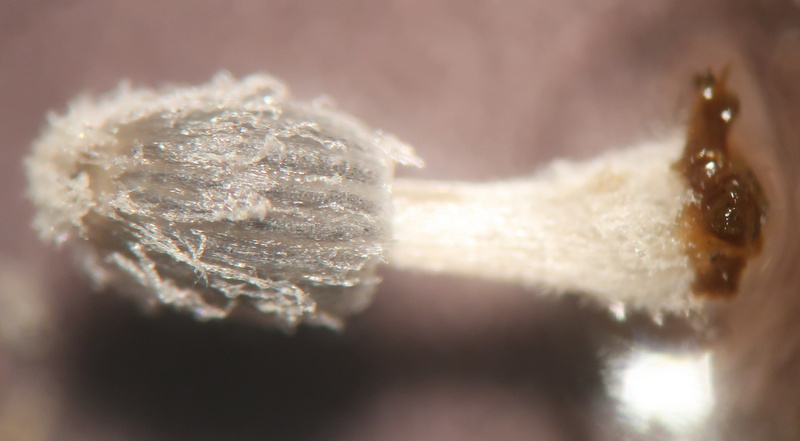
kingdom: Fungi
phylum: Basidiomycota
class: Agaricomycetes
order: Agaricales
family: Psathyrellaceae
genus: Coprinopsis
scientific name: Coprinopsis
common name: blækhat
